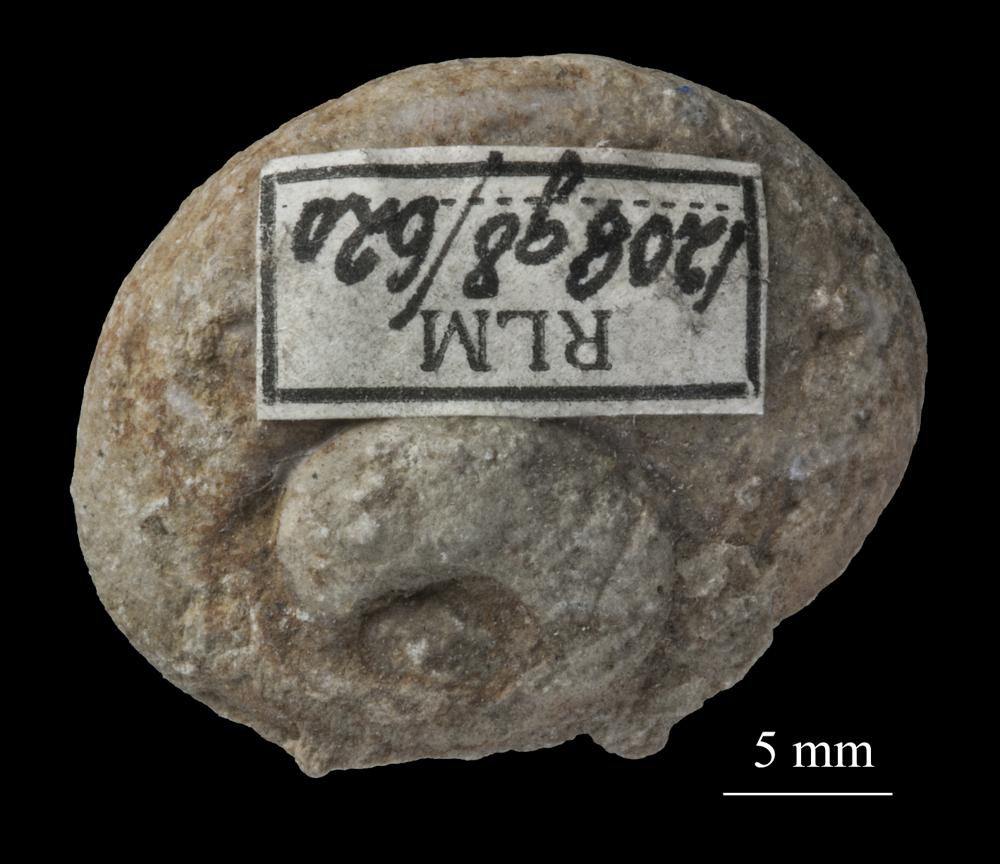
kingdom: Animalia
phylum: Mollusca
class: Gastropoda
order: Pleurotomariida
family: Pleurotomariidae
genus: Pleurotomaria
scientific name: Pleurotomaria
